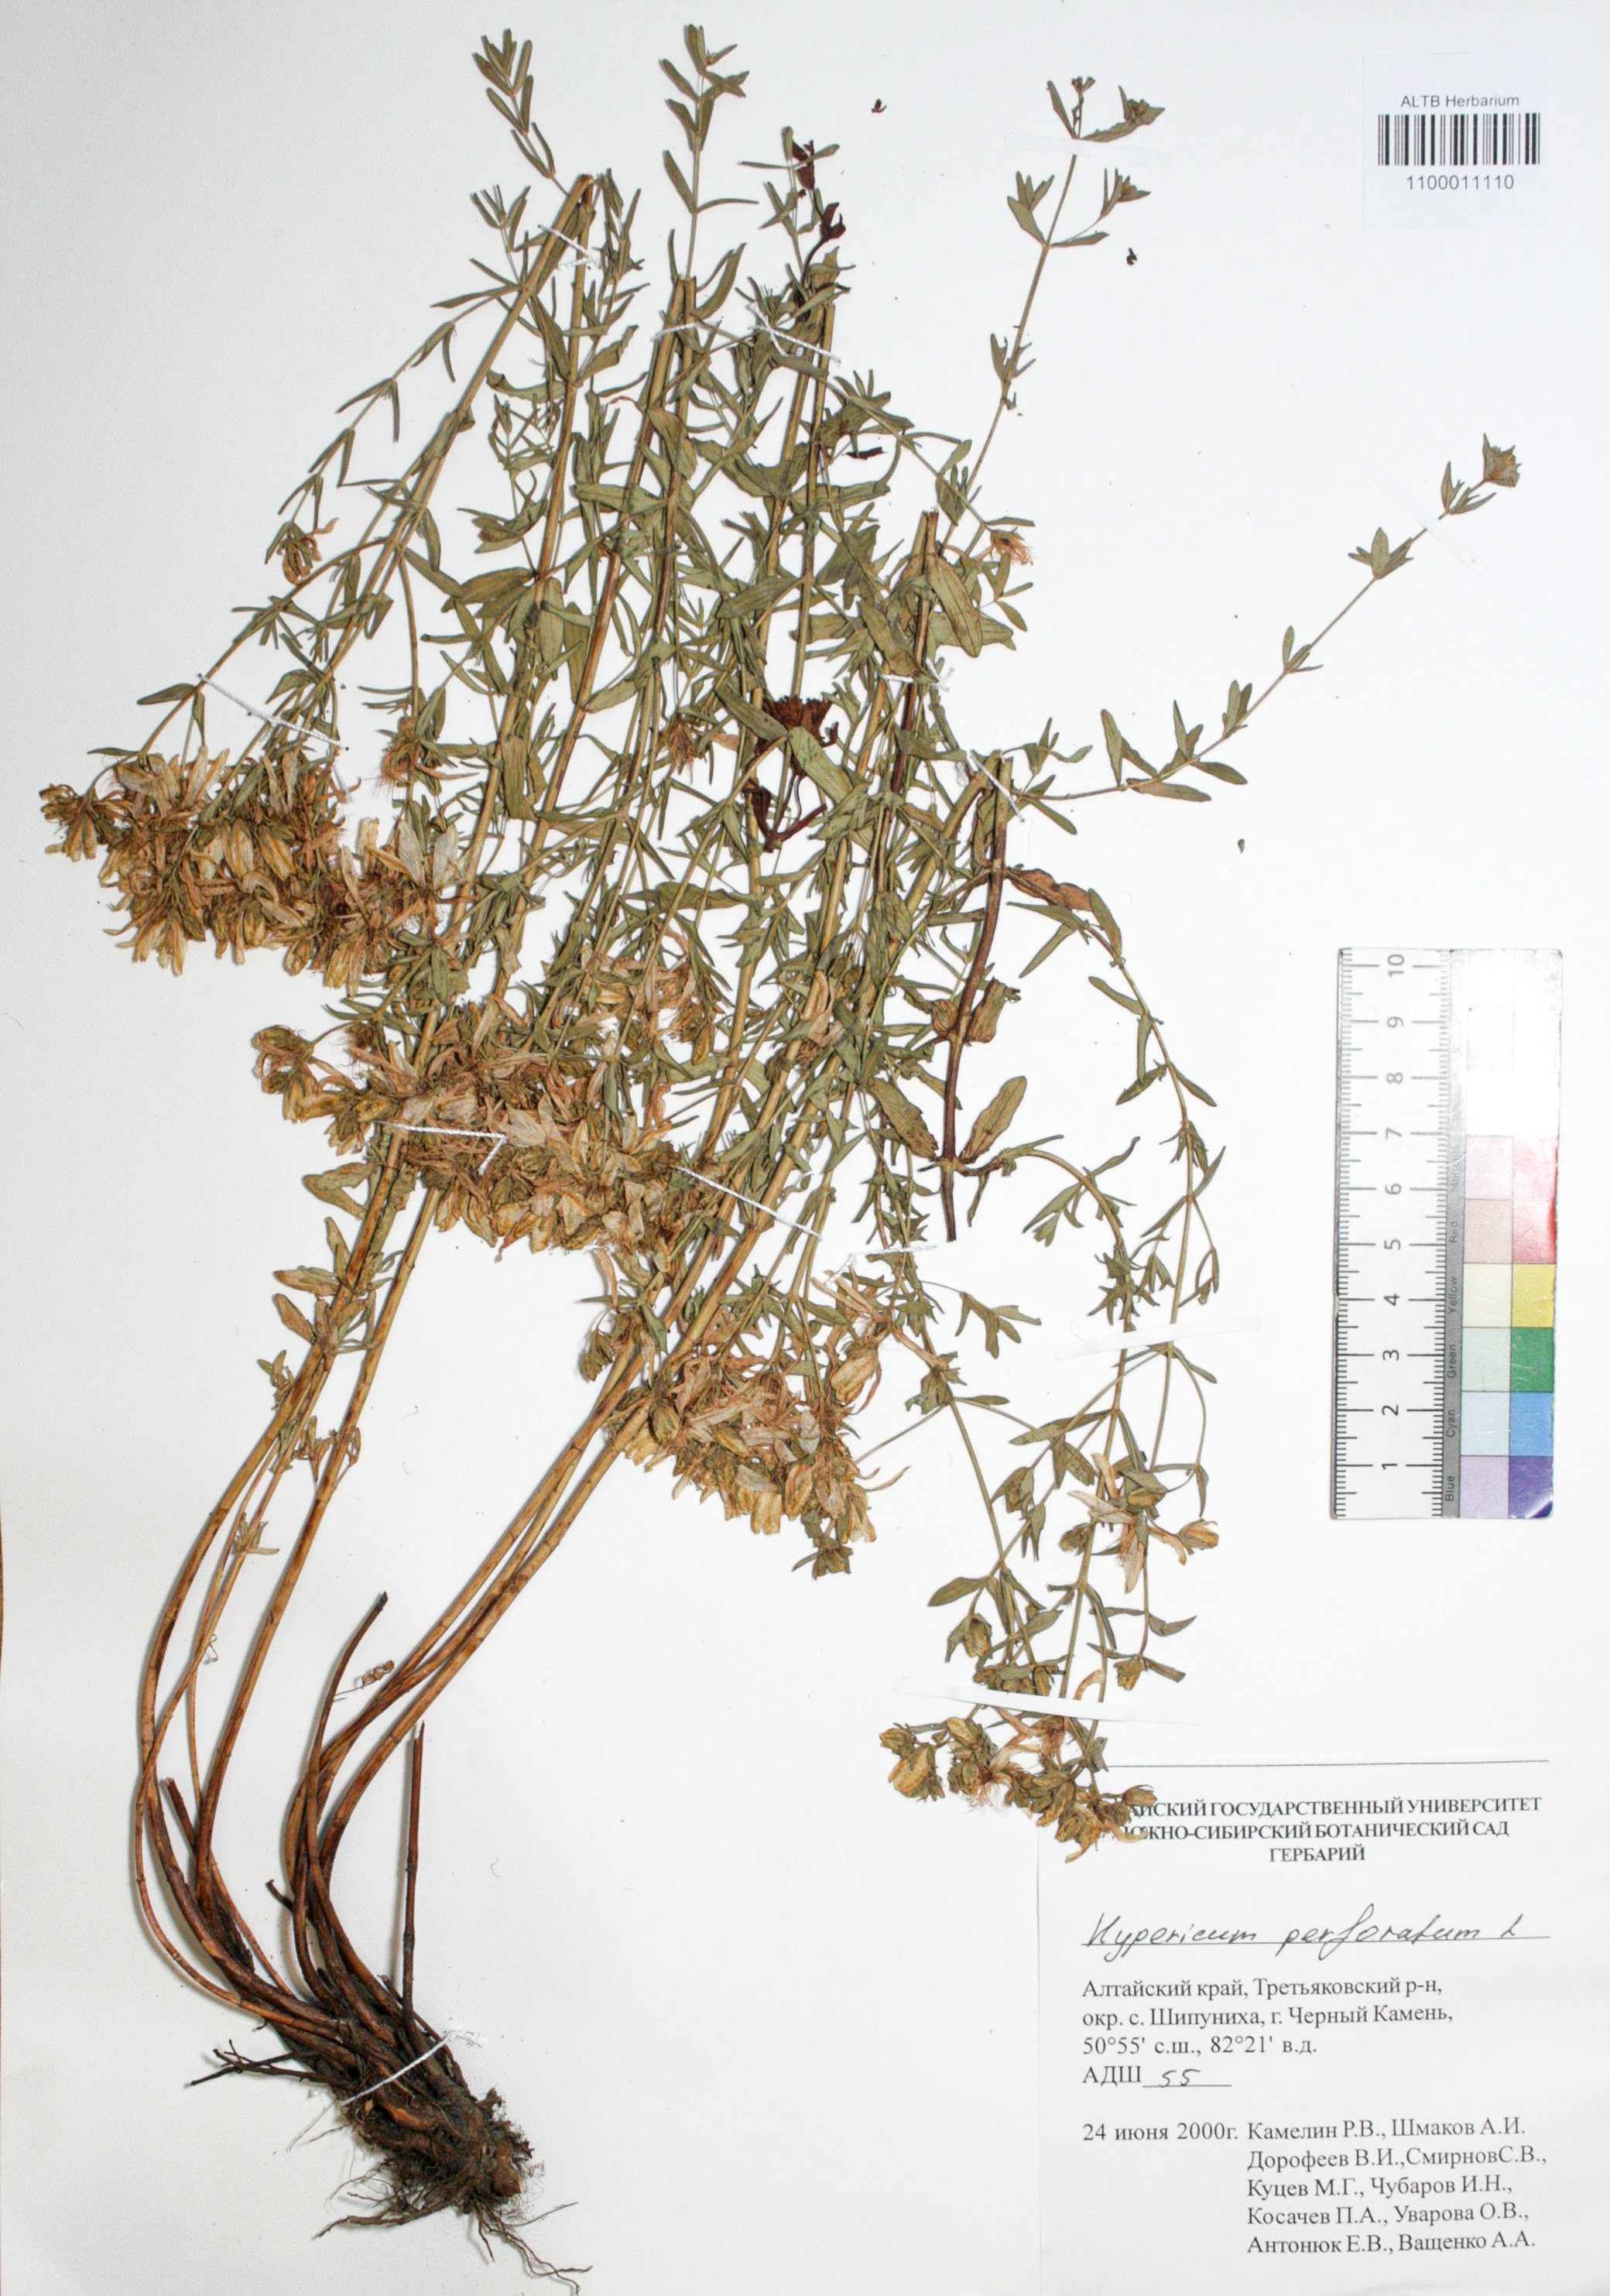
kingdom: Plantae
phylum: Tracheophyta
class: Magnoliopsida
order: Malpighiales
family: Hypericaceae
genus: Hypericum
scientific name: Hypericum perforatum
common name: Common st. johnswort
